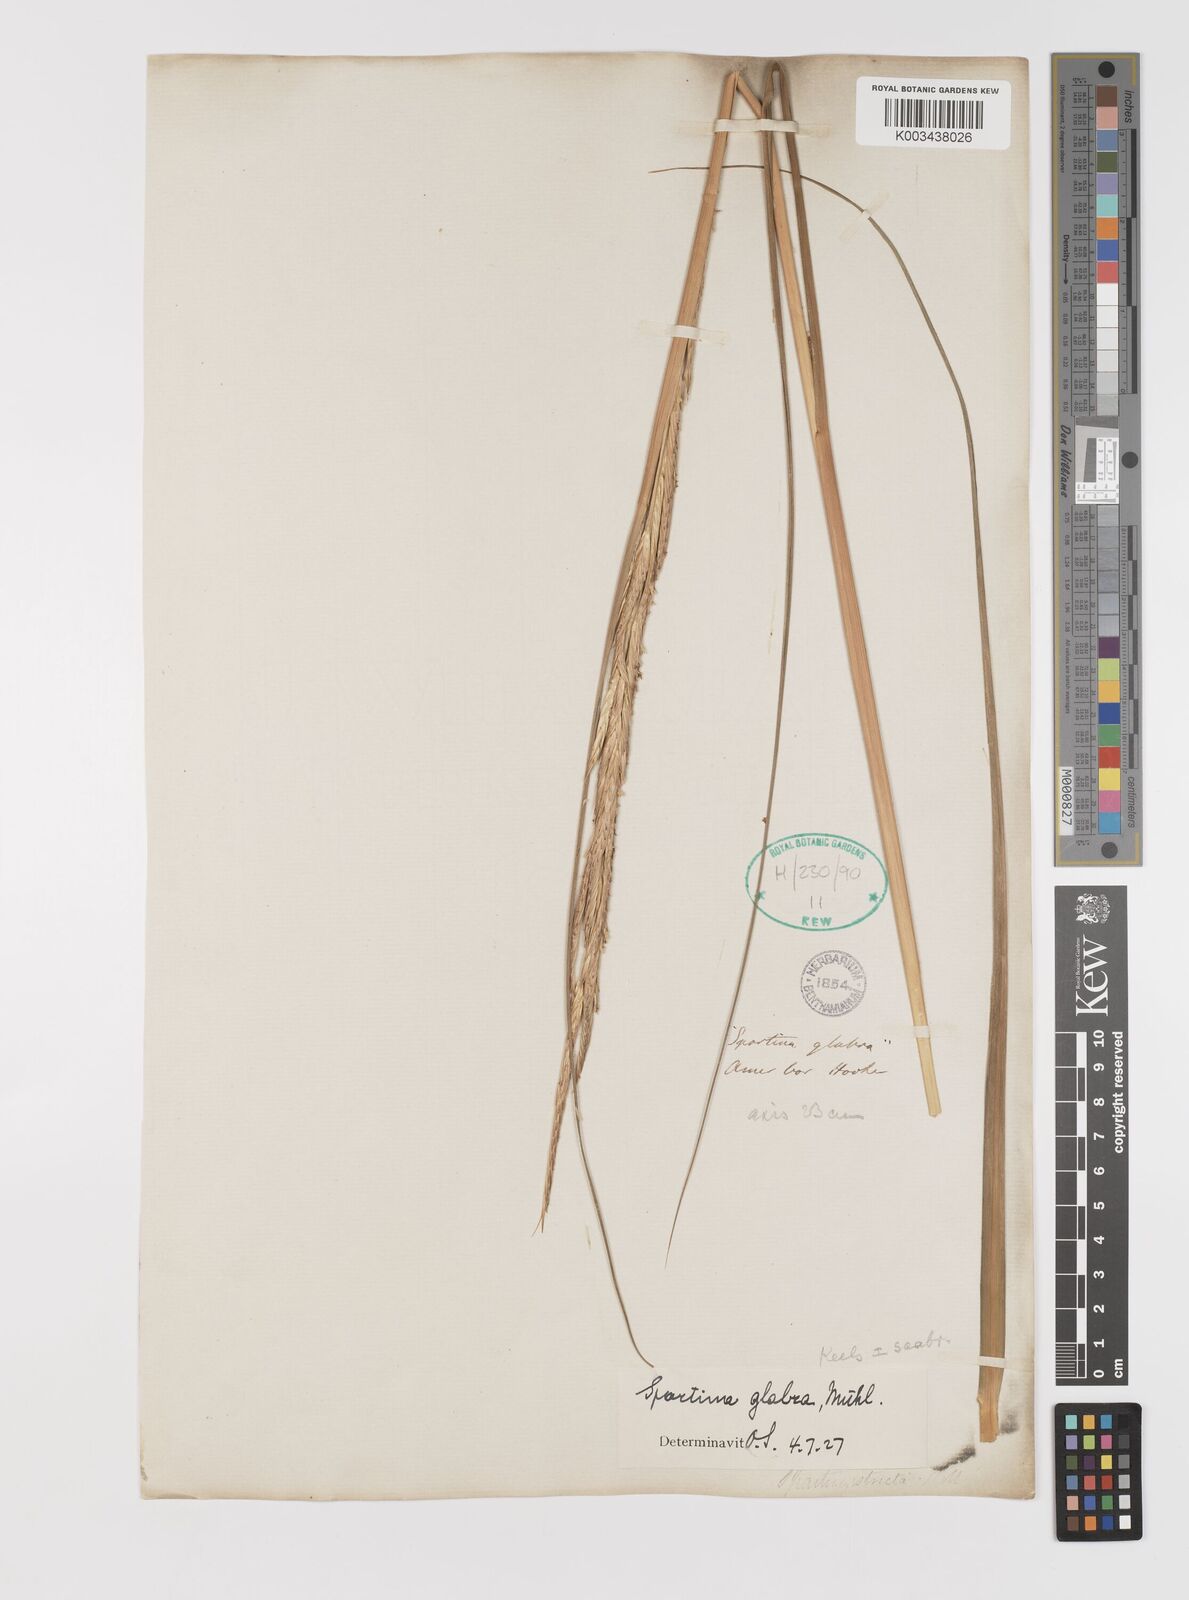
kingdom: Plantae
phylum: Tracheophyta
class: Liliopsida
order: Poales
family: Poaceae
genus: Sporobolus
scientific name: Sporobolus alterniflorus
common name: Atlantic cordgrass
